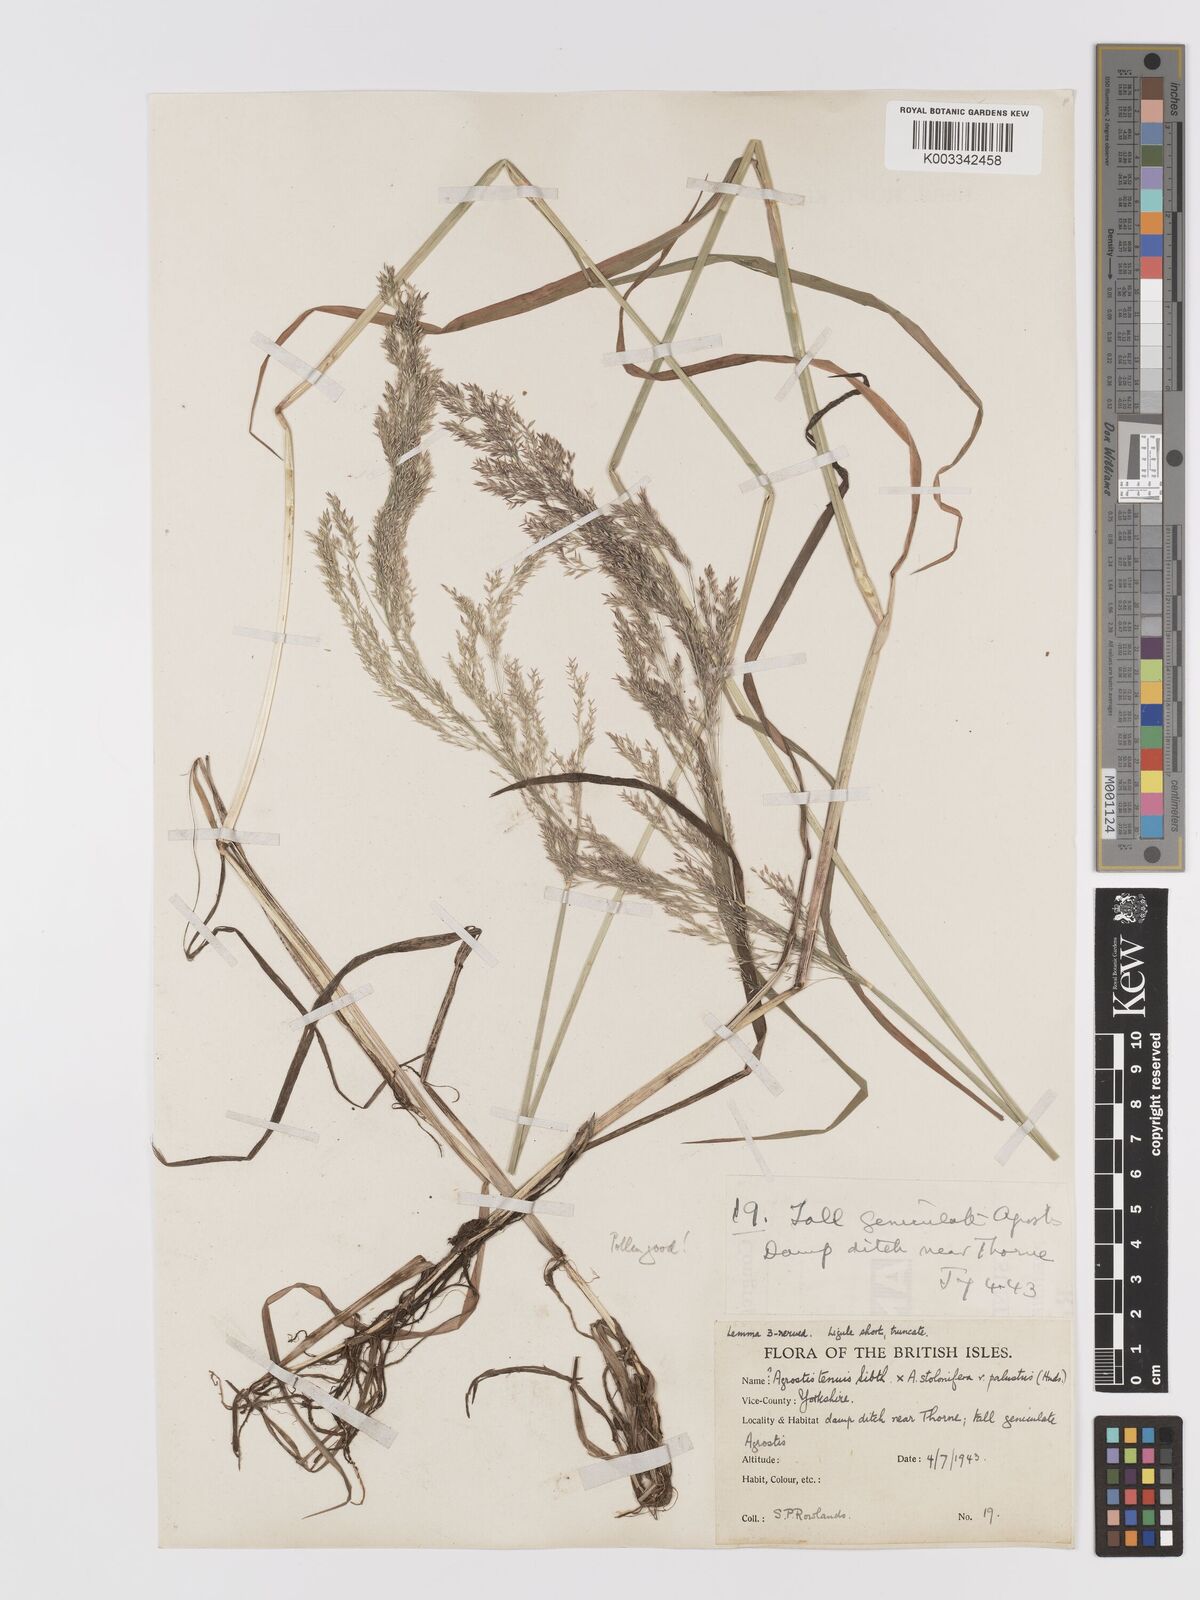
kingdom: Plantae
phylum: Tracheophyta
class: Liliopsida
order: Poales
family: Poaceae
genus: Agrostis
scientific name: Agrostis capillaris
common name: Colonial bentgrass
